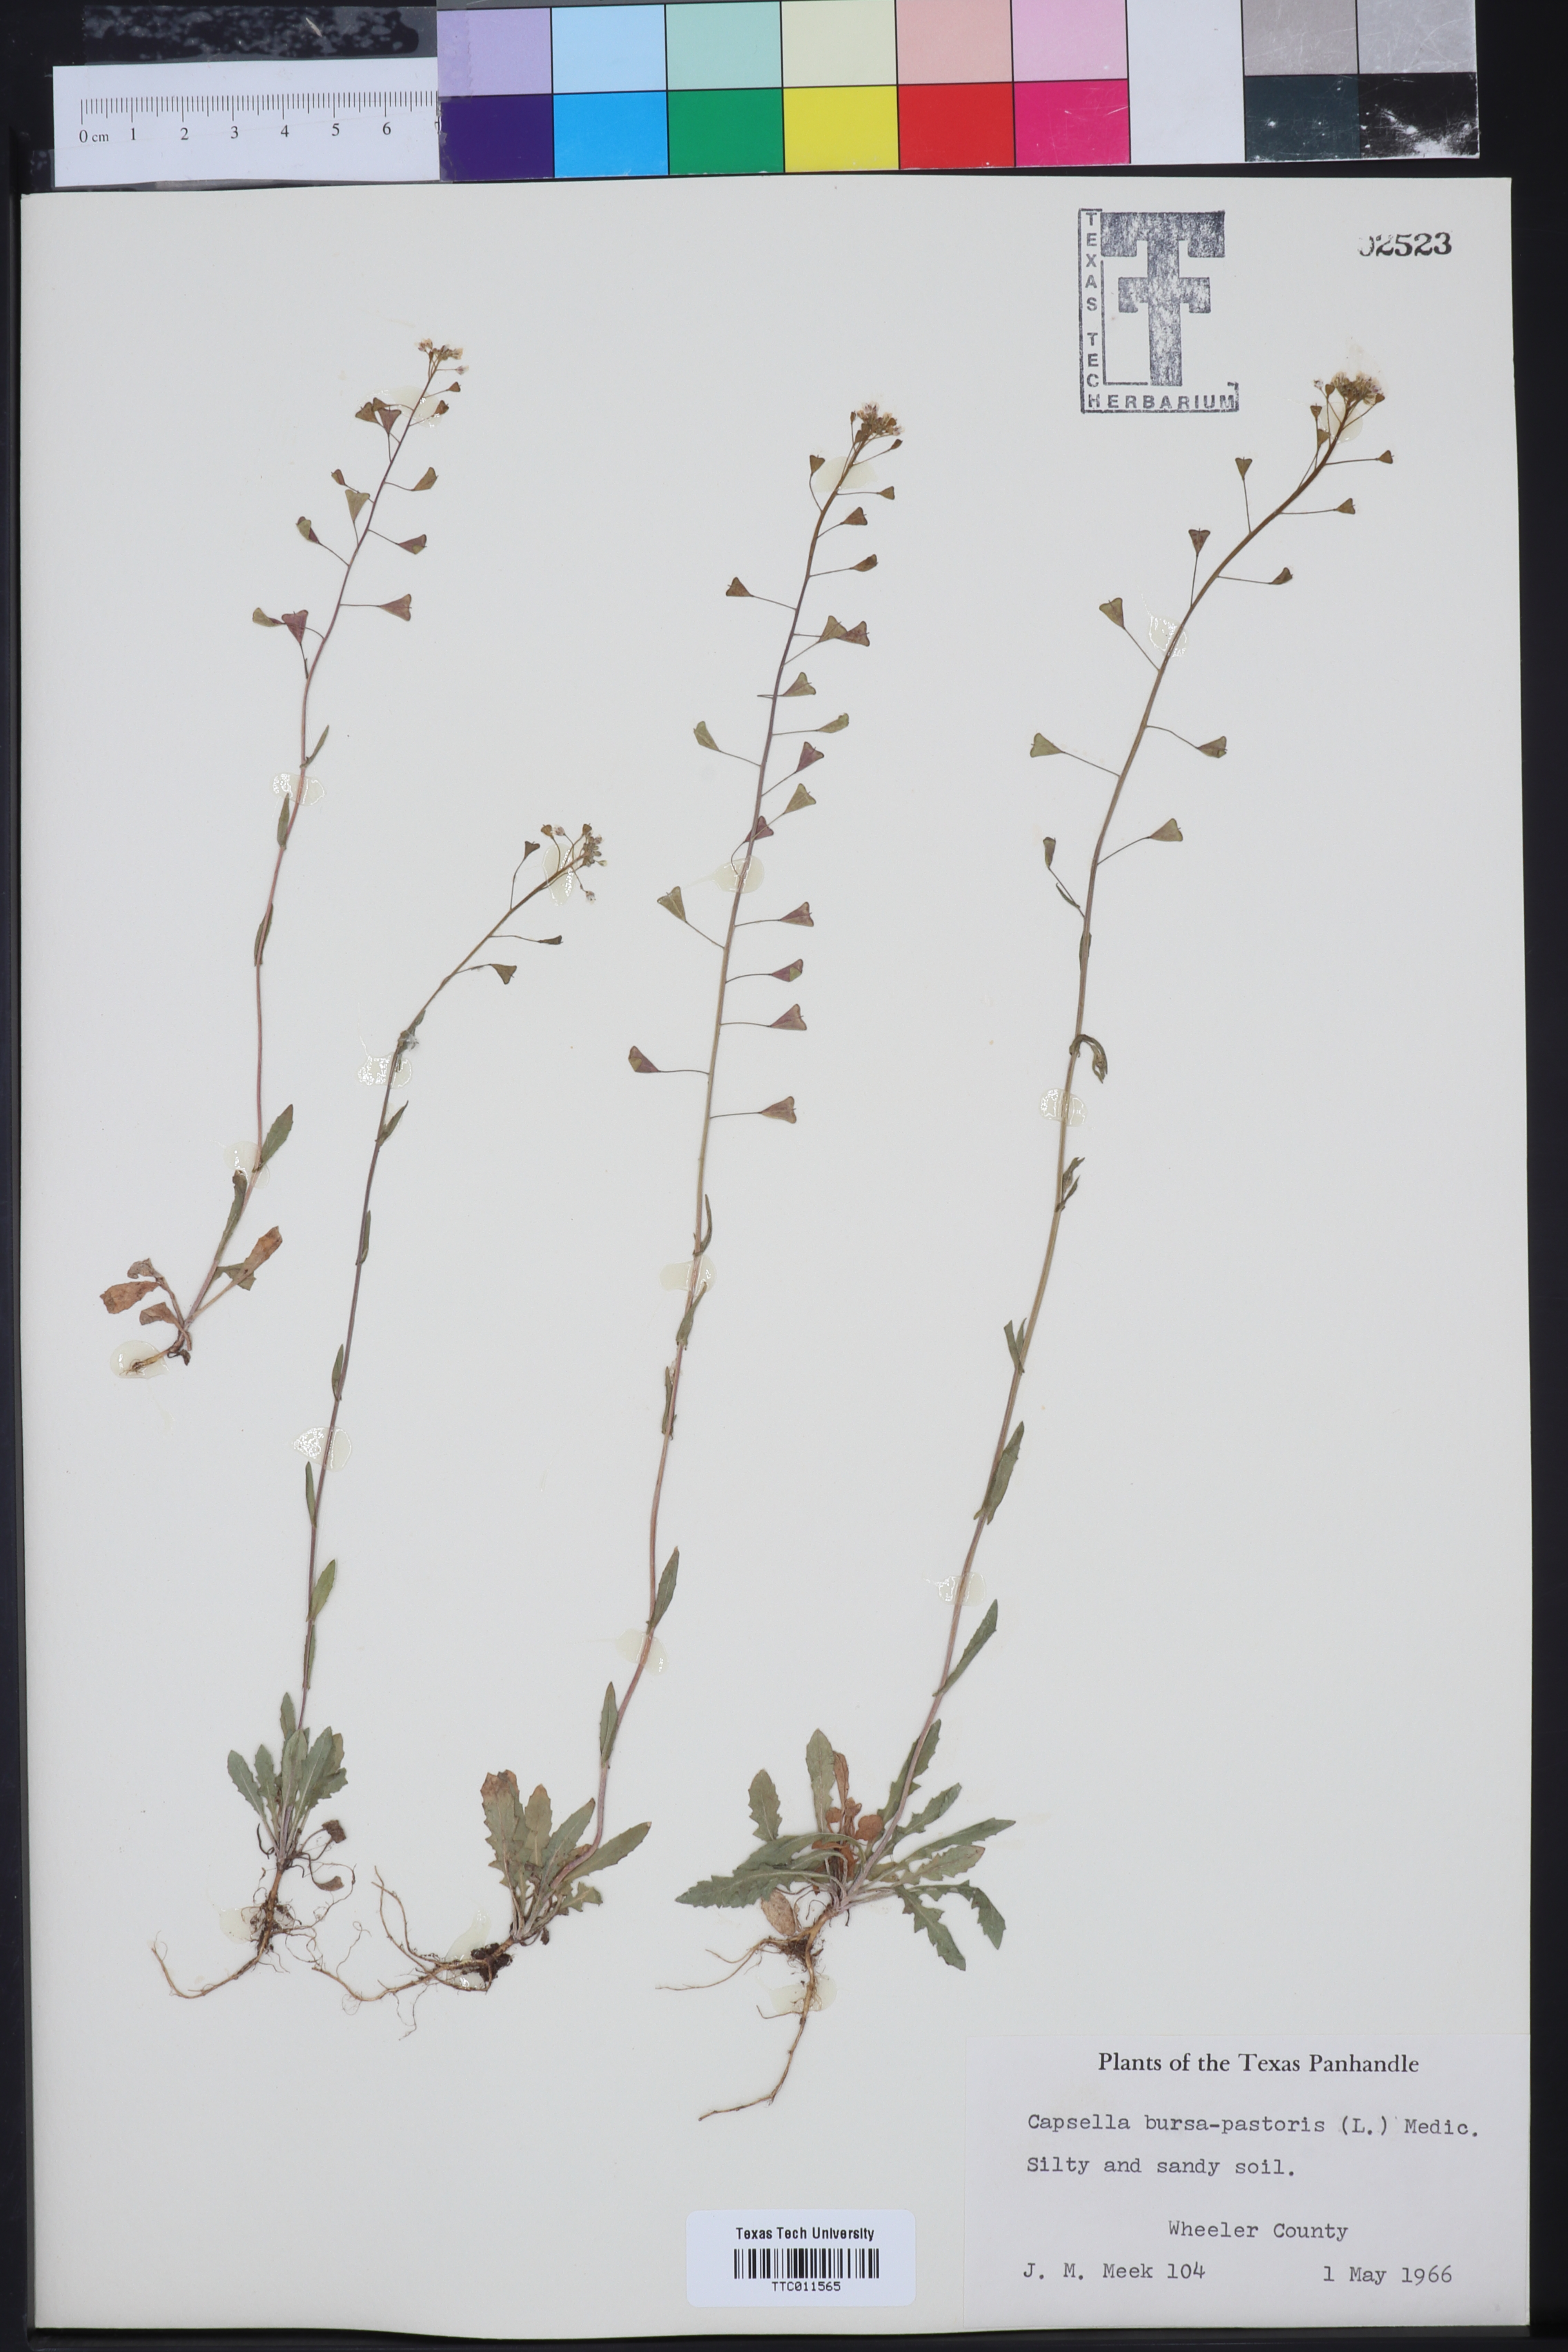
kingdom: Plantae
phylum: Tracheophyta
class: Magnoliopsida
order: Brassicales
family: Brassicaceae
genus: Capsella
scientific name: Capsella bursa-pastoris
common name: Shepherd's purse
